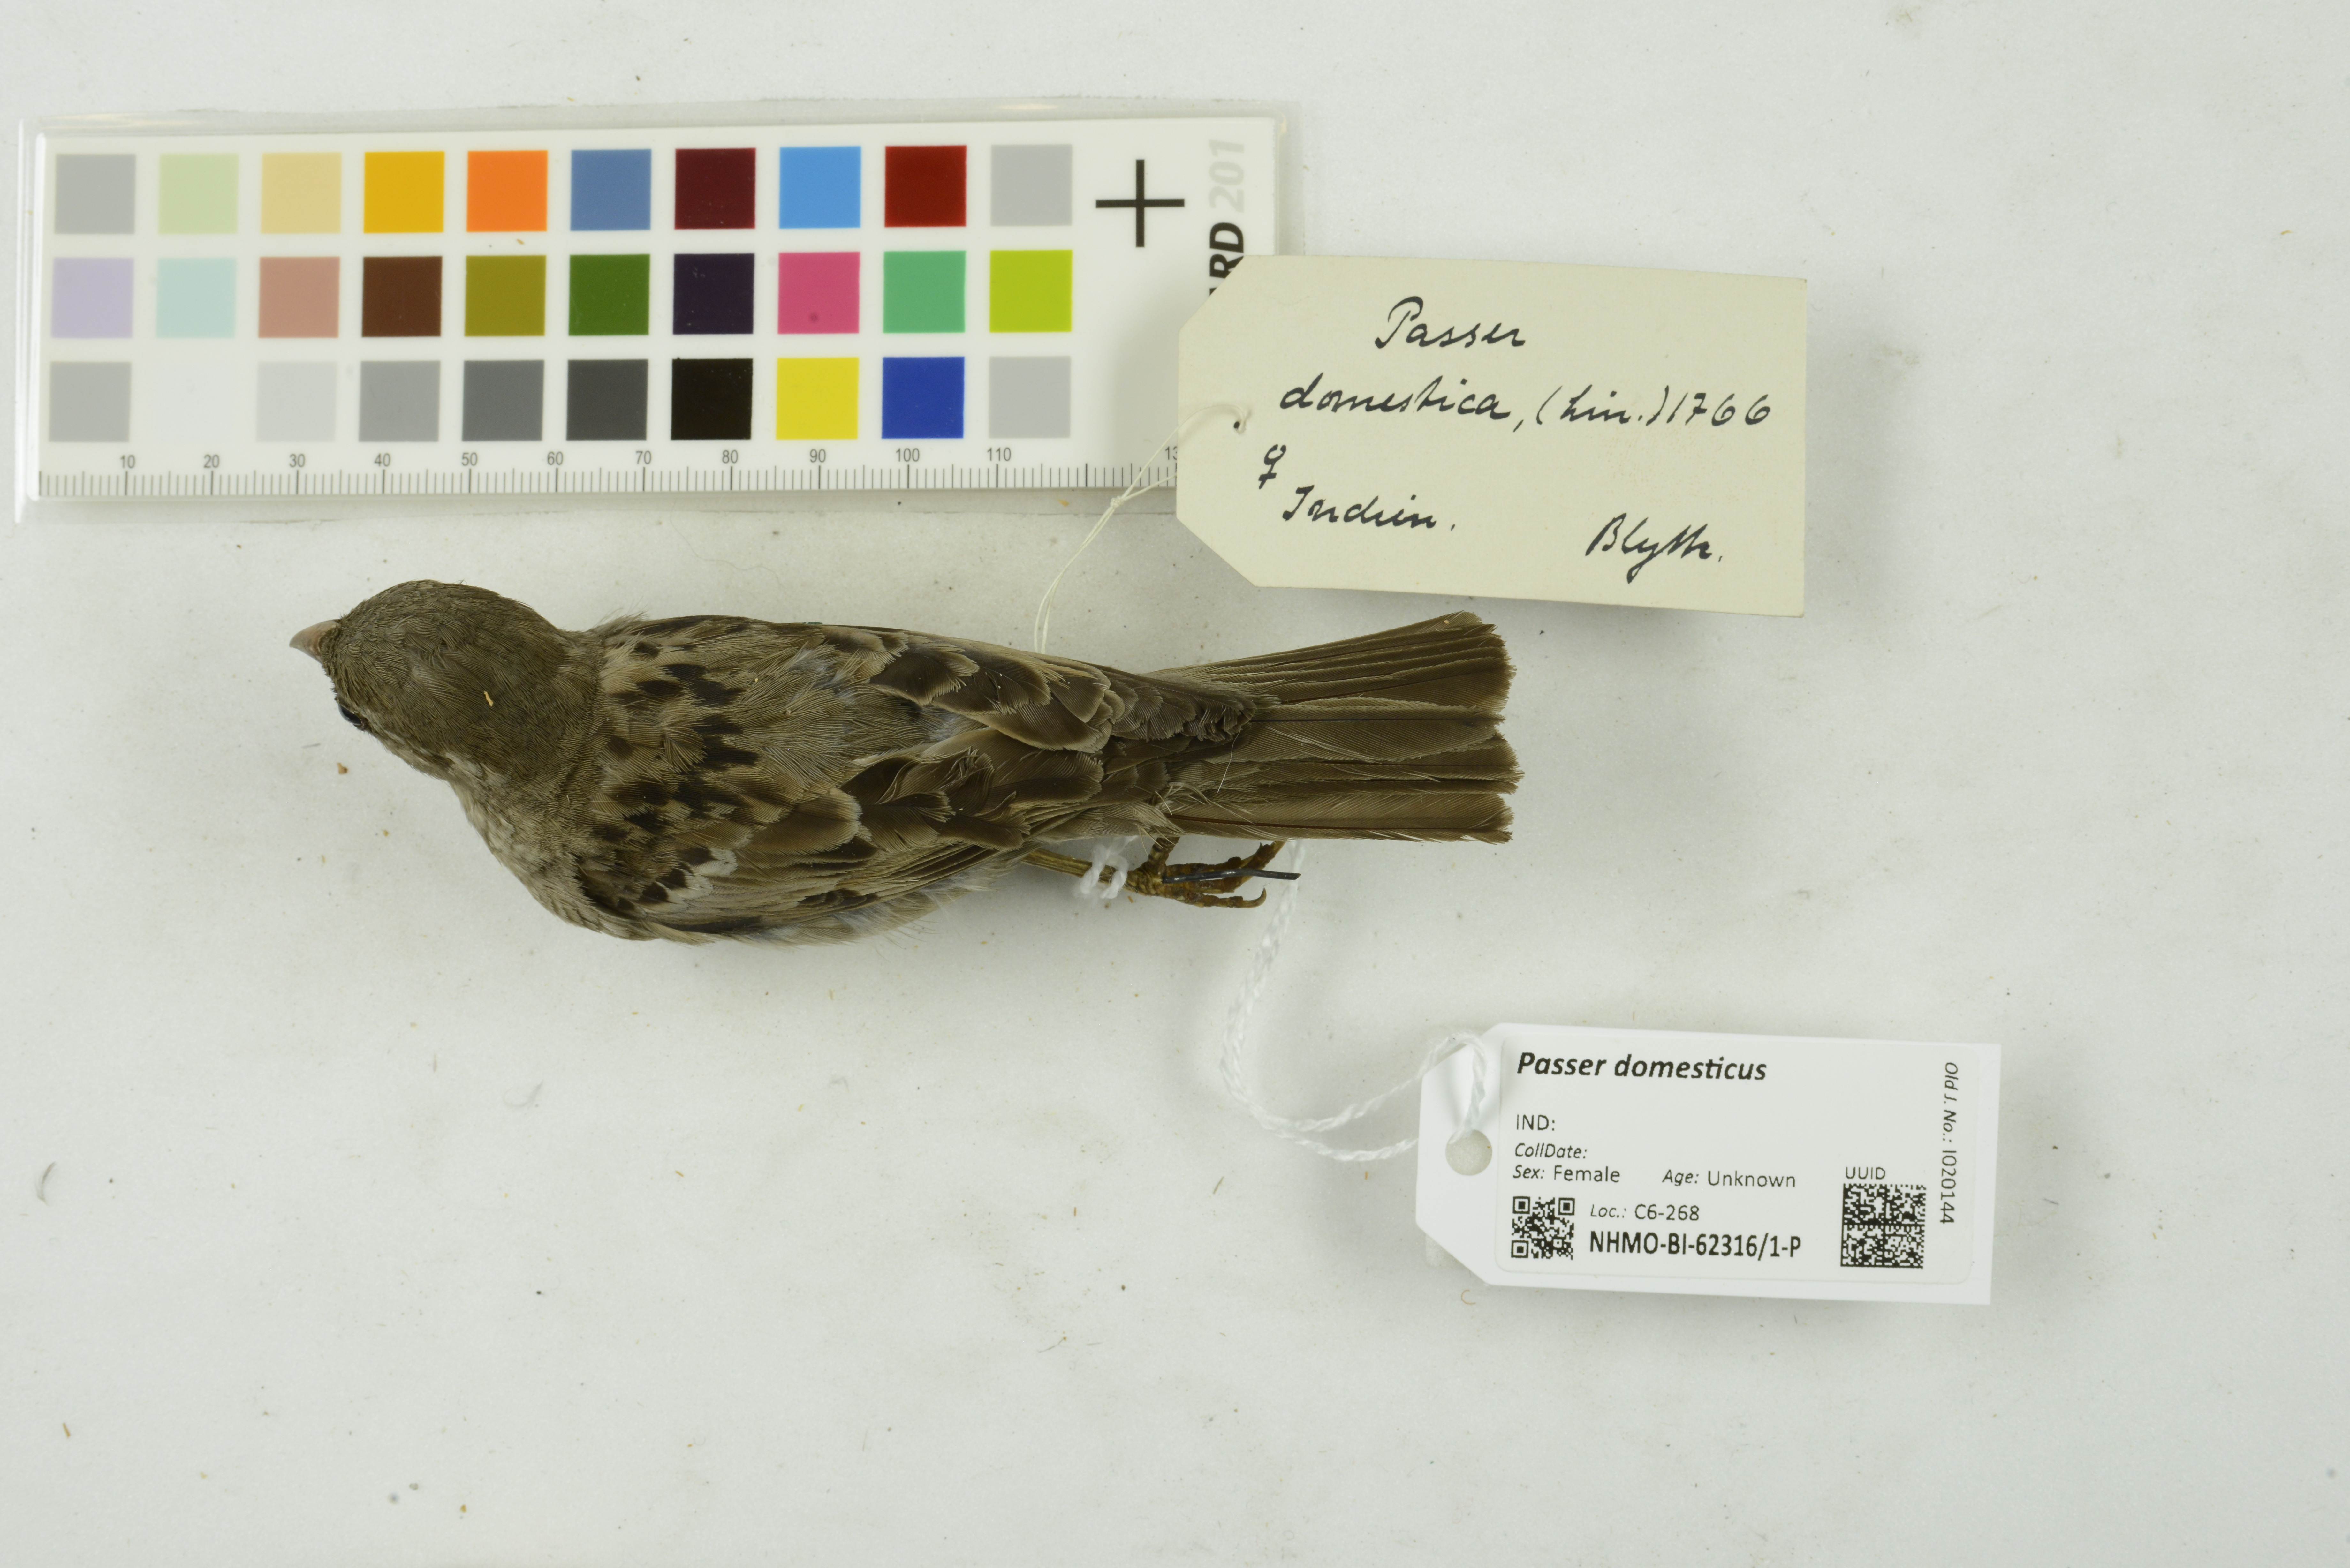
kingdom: Animalia
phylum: Chordata
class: Aves
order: Passeriformes
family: Passeridae
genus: Passer
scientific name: Passer domesticus
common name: House sparrow
